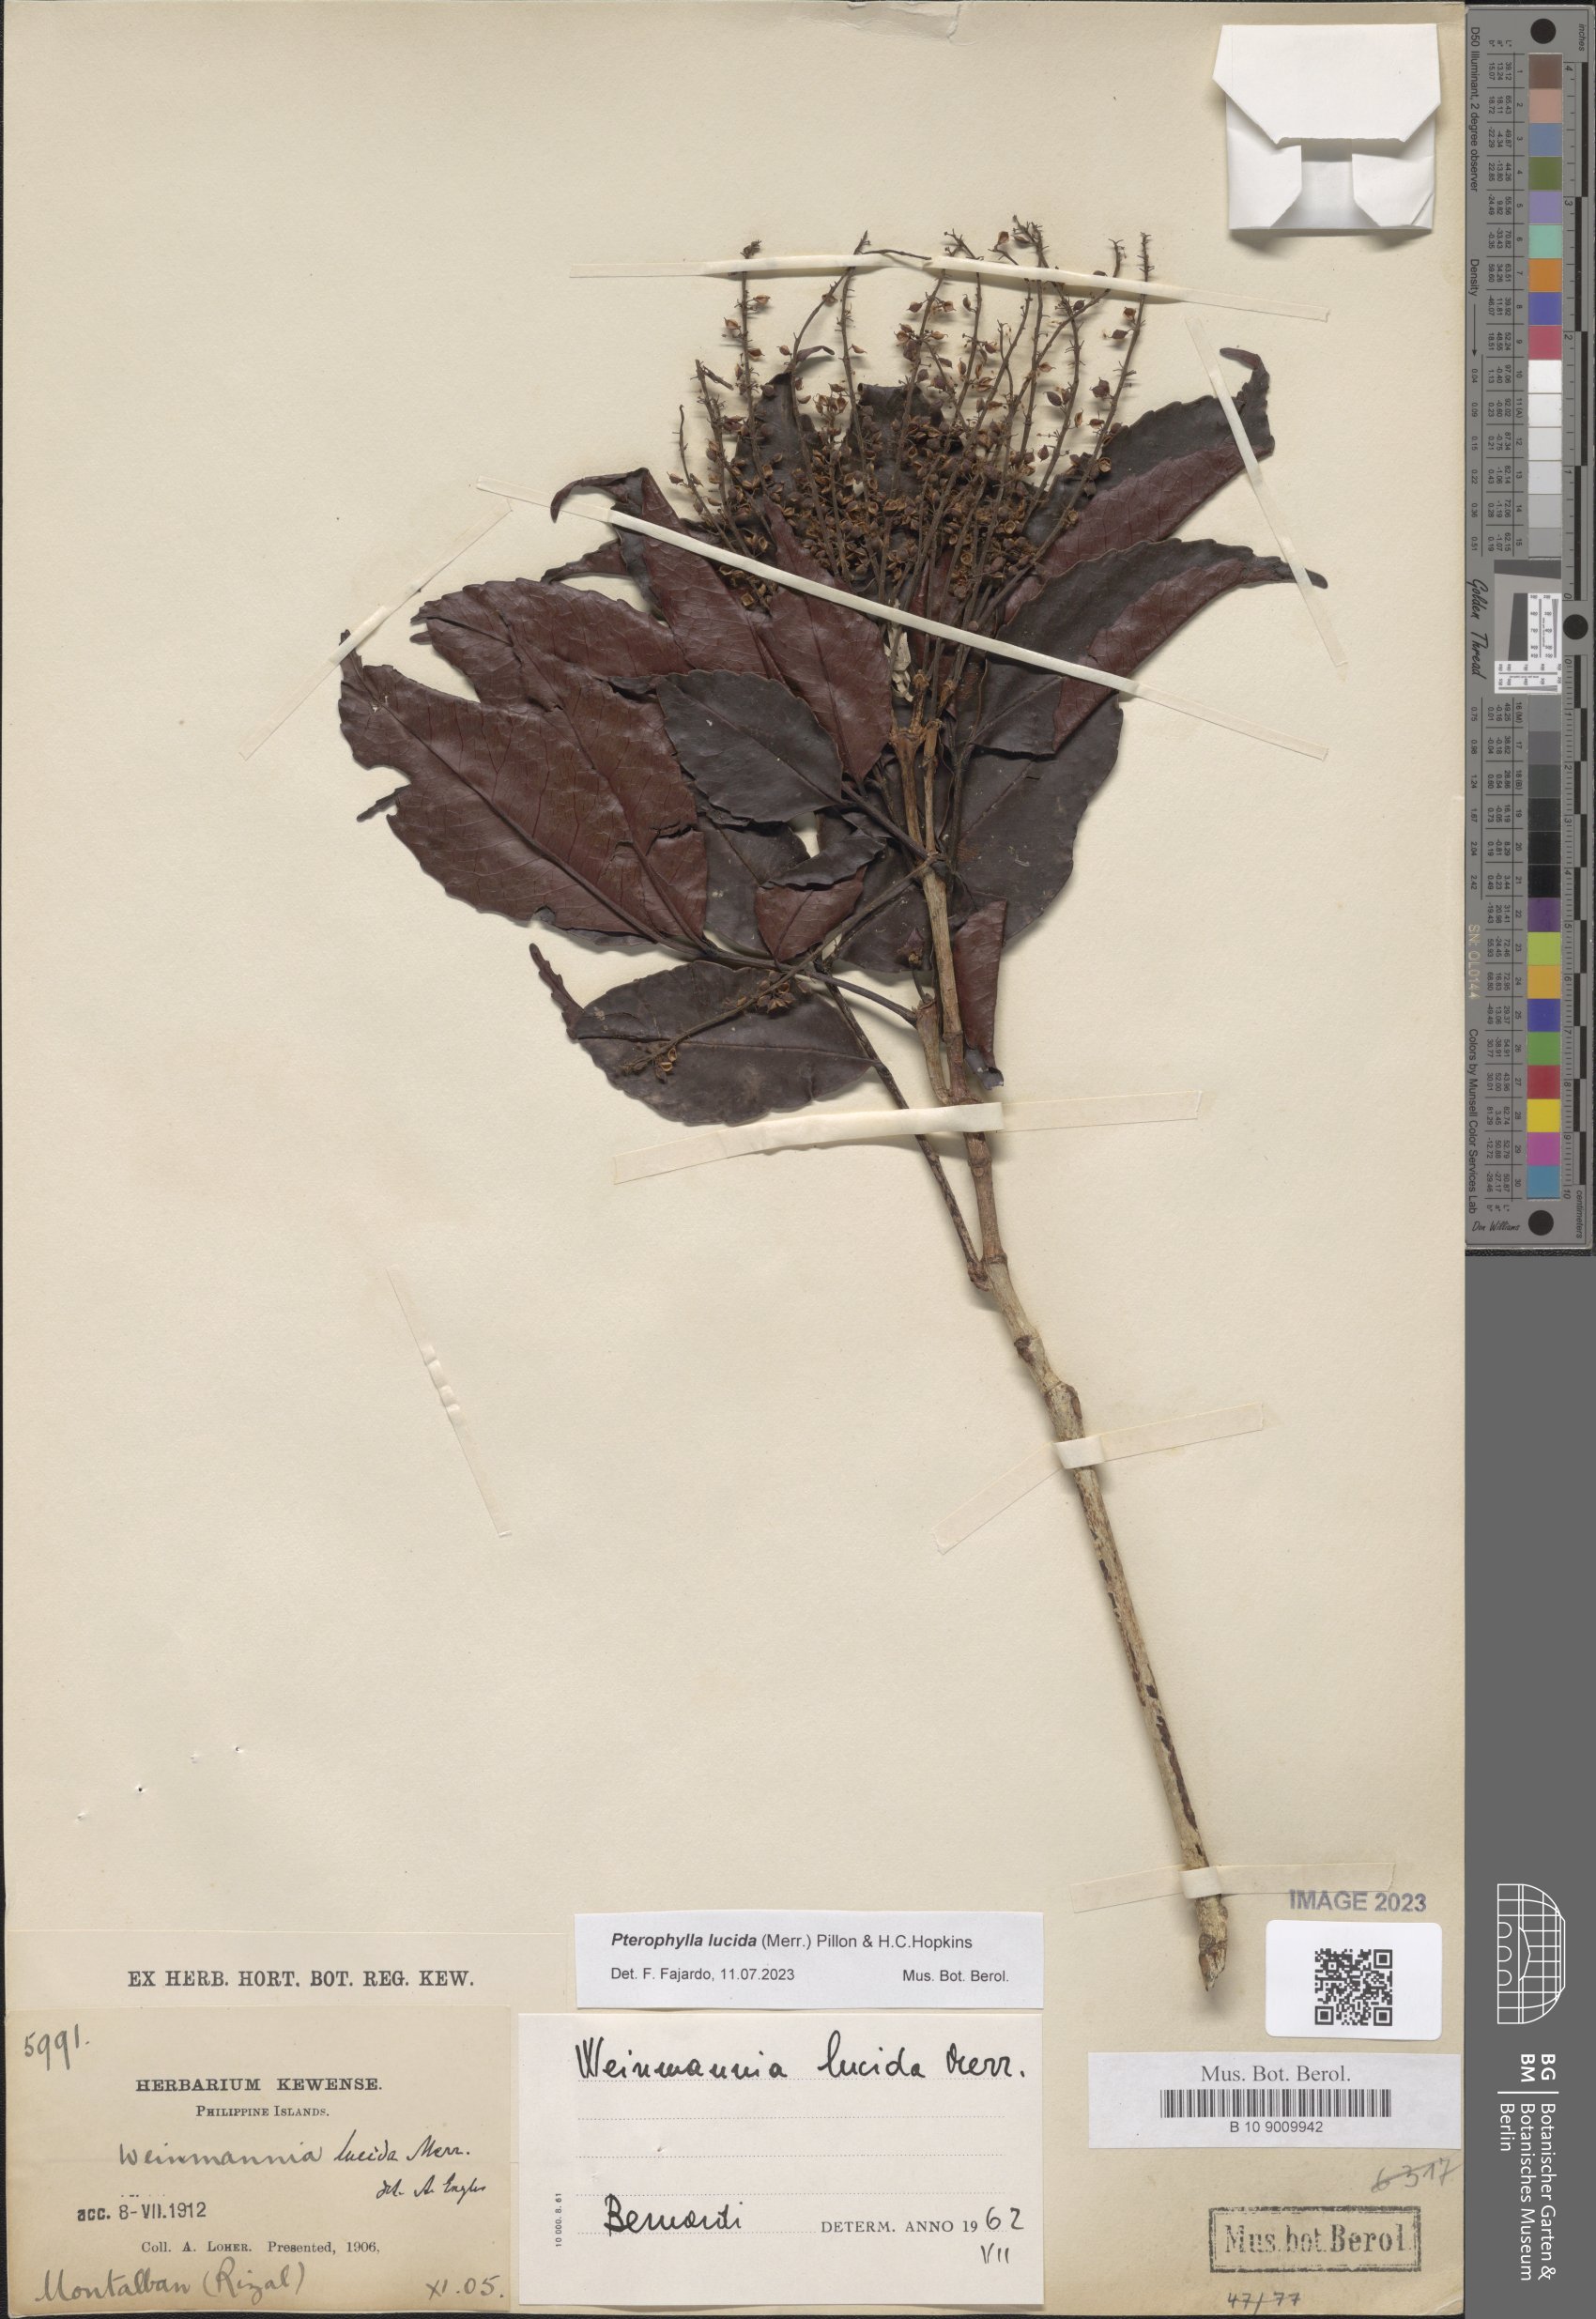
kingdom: Plantae
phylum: Tracheophyta
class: Magnoliopsida
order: Oxalidales
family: Cunoniaceae
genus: Pterophylla
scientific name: Pterophylla lucida
